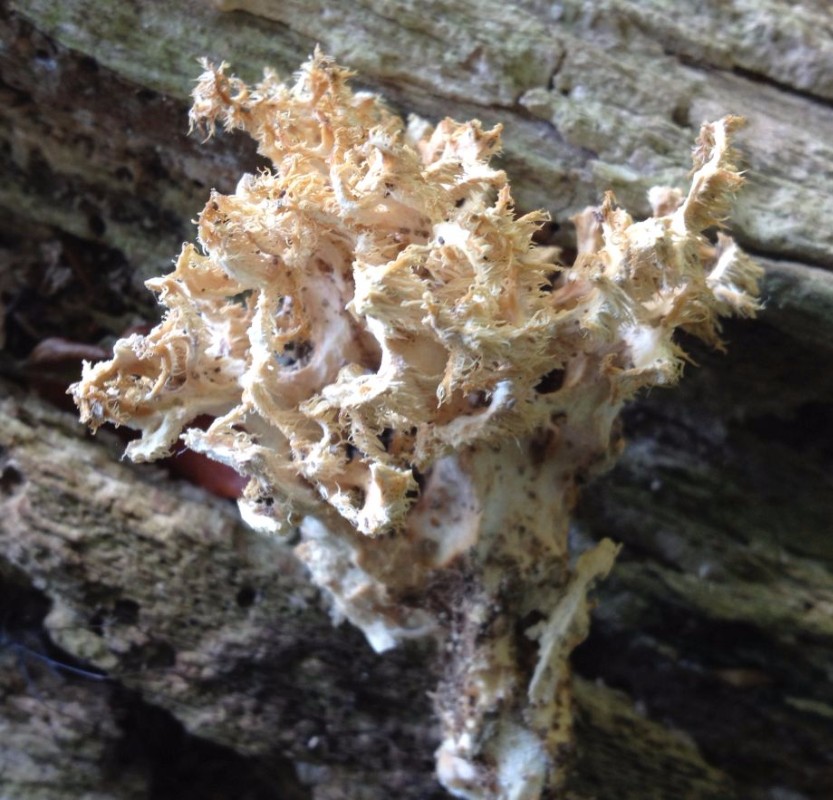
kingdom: Fungi
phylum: Basidiomycota
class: Agaricomycetes
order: Russulales
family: Hericiaceae
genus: Hericium
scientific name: Hericium coralloides
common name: koralpigsvamp
